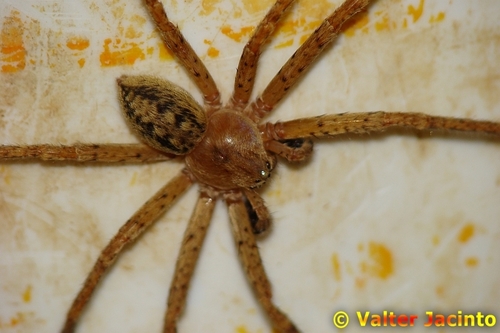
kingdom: Animalia
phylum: Arthropoda
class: Arachnida
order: Araneae
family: Sparassidae
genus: Olios
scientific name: Olios argelasius
